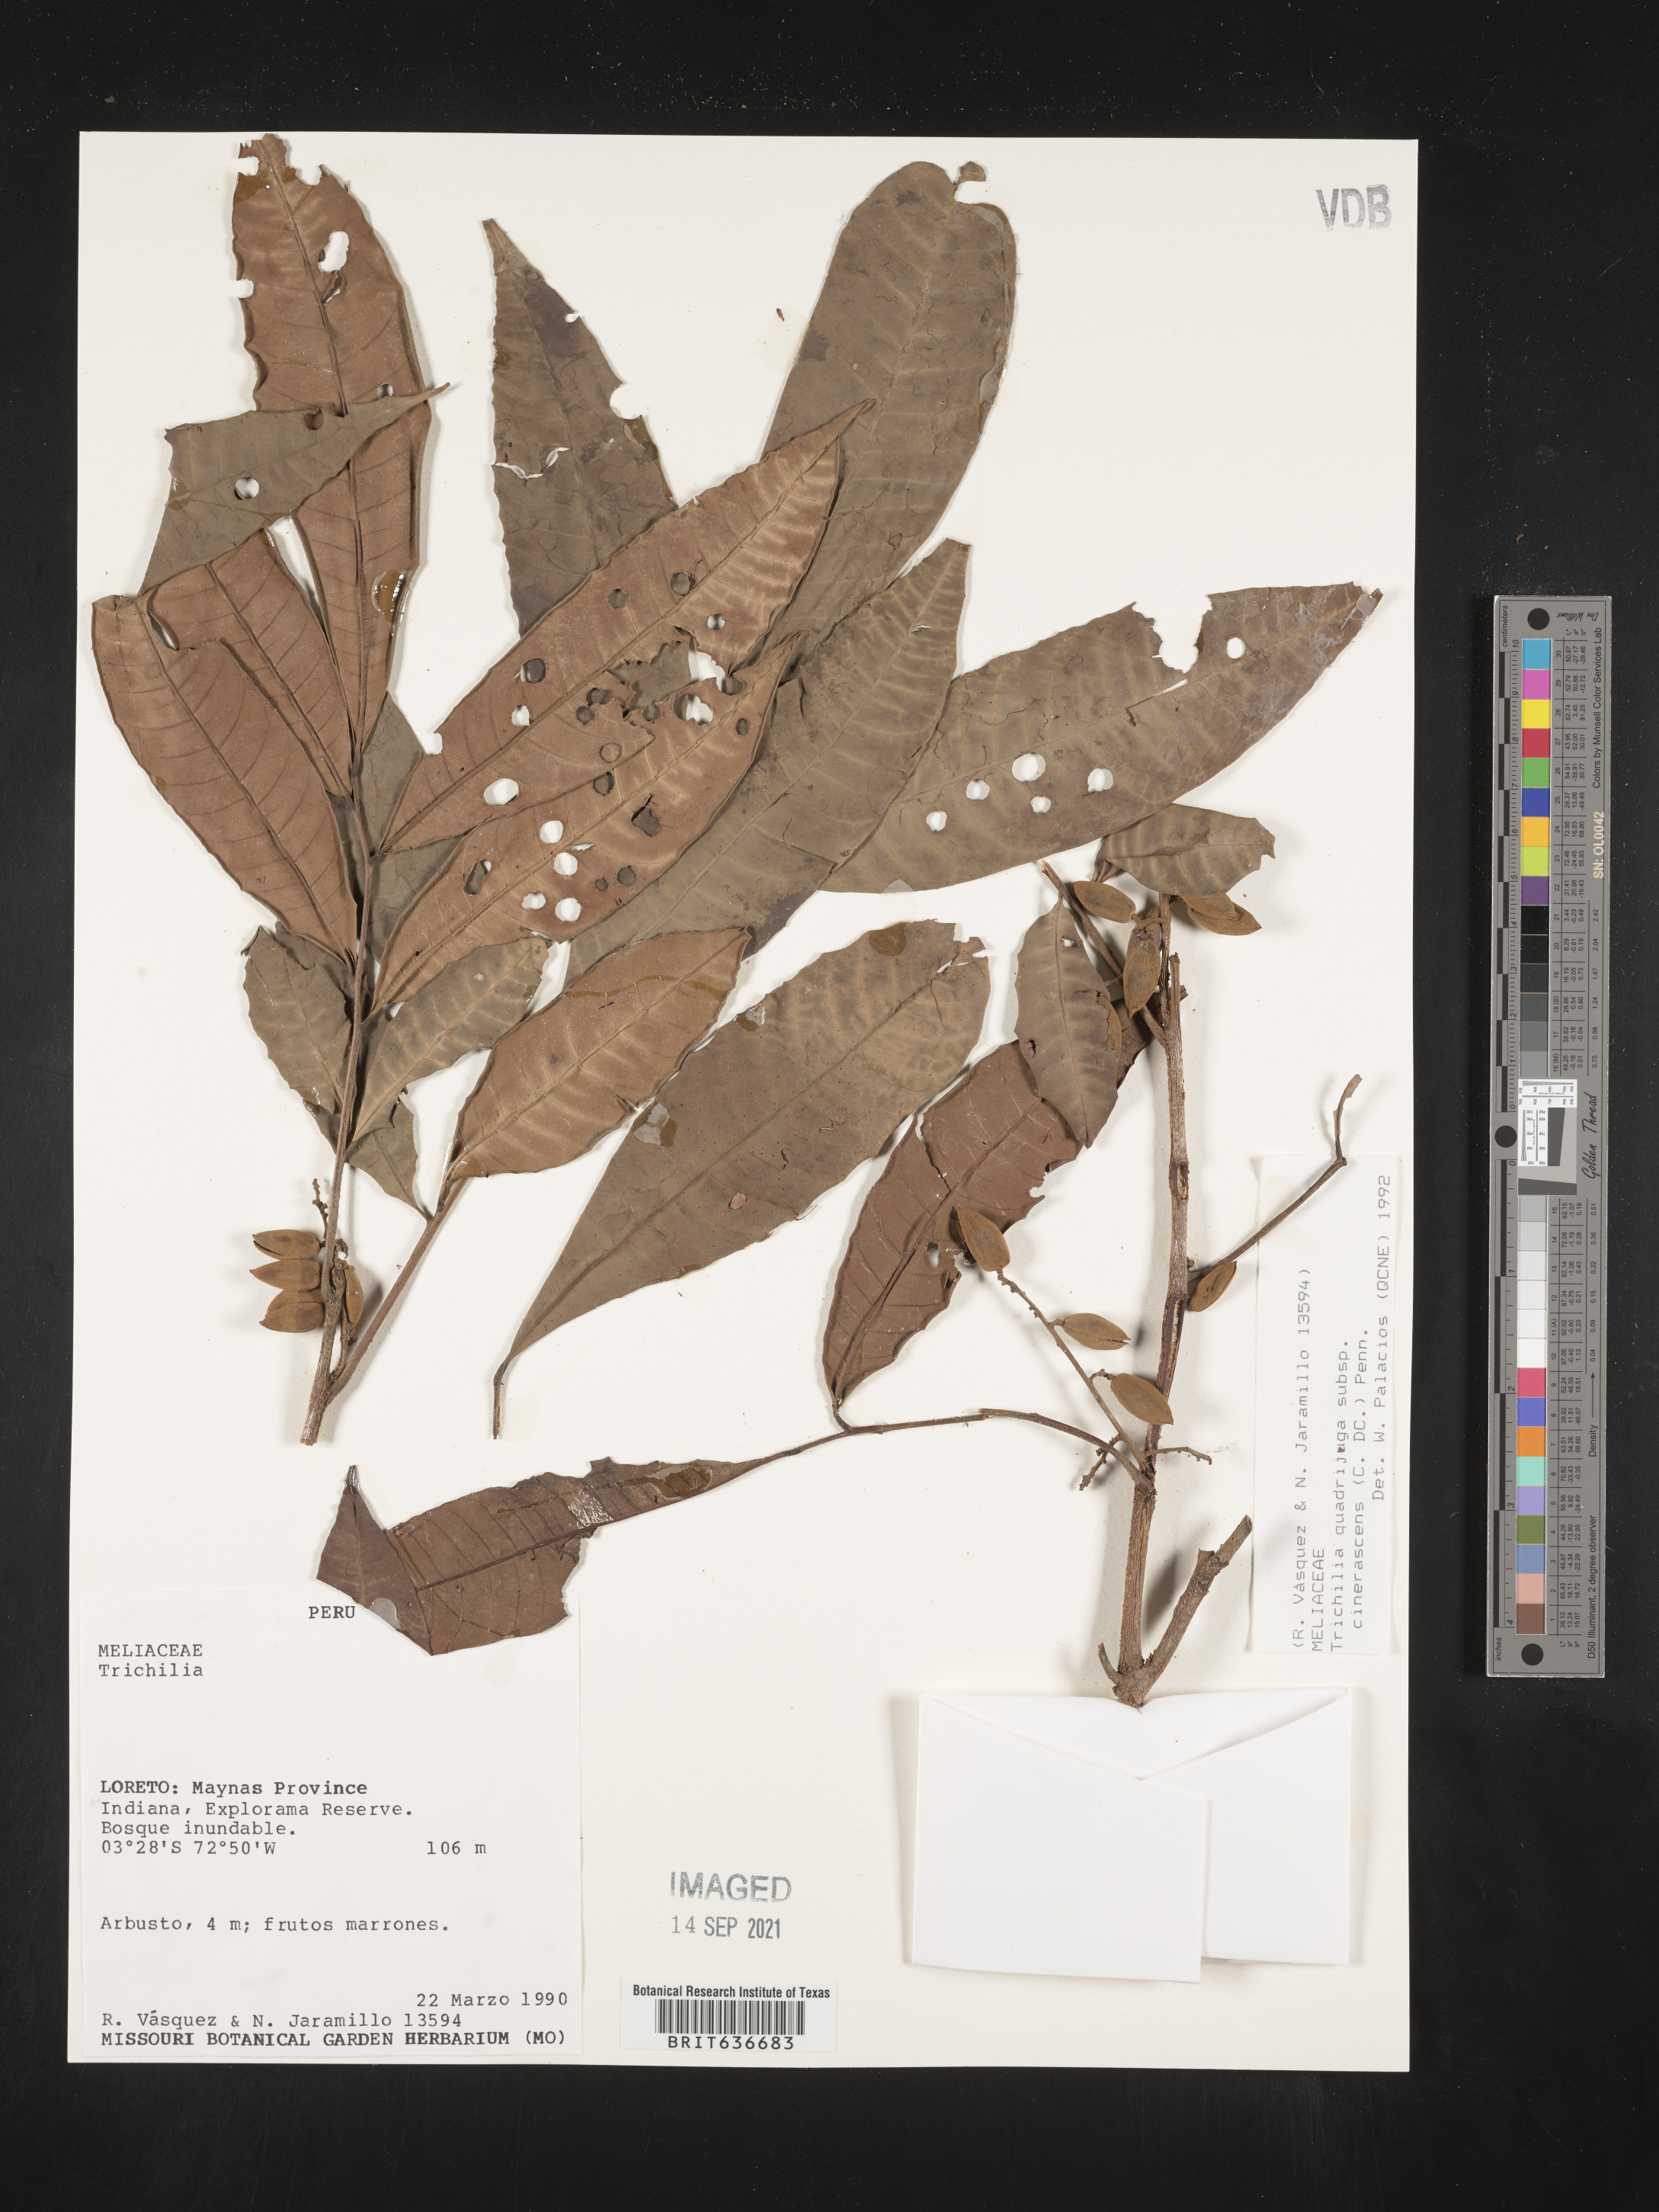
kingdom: Plantae
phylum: Tracheophyta
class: Magnoliopsida
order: Sapindales
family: Meliaceae
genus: Trichilia
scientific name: Trichilia
